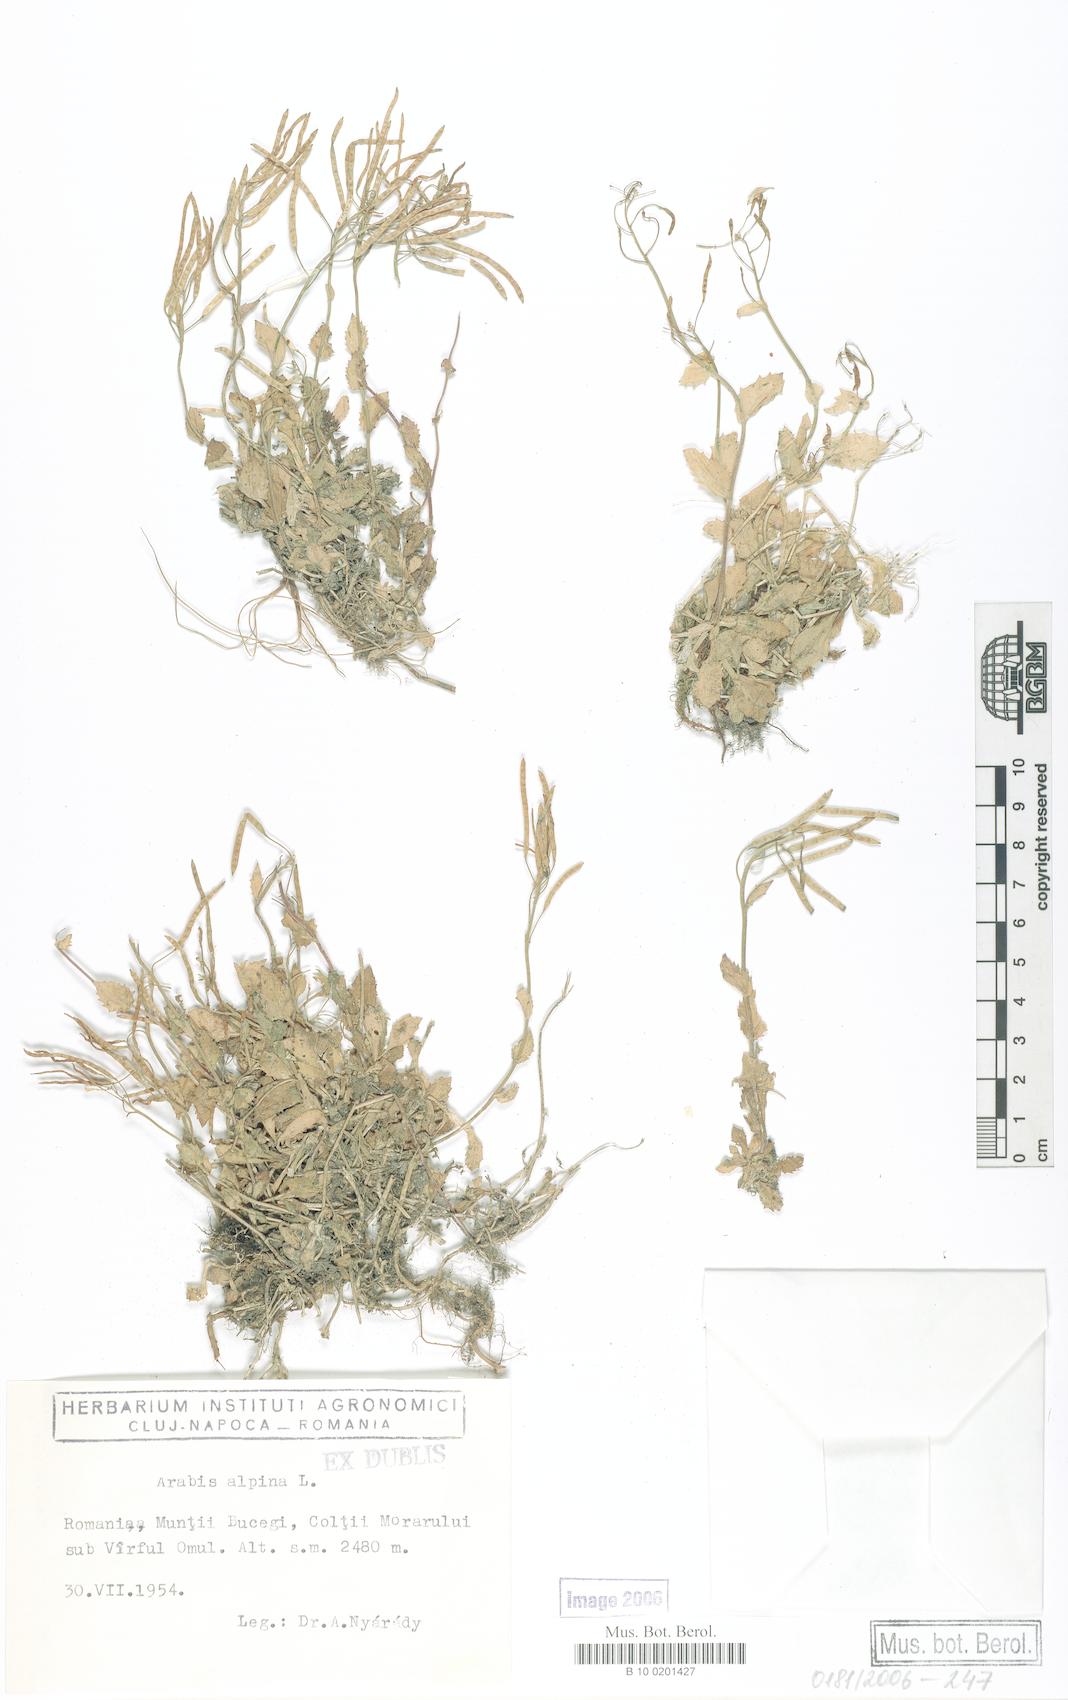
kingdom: Plantae
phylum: Tracheophyta
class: Magnoliopsida
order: Brassicales
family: Brassicaceae
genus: Arabis
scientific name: Arabis alpina
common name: Alpine rock-cress
